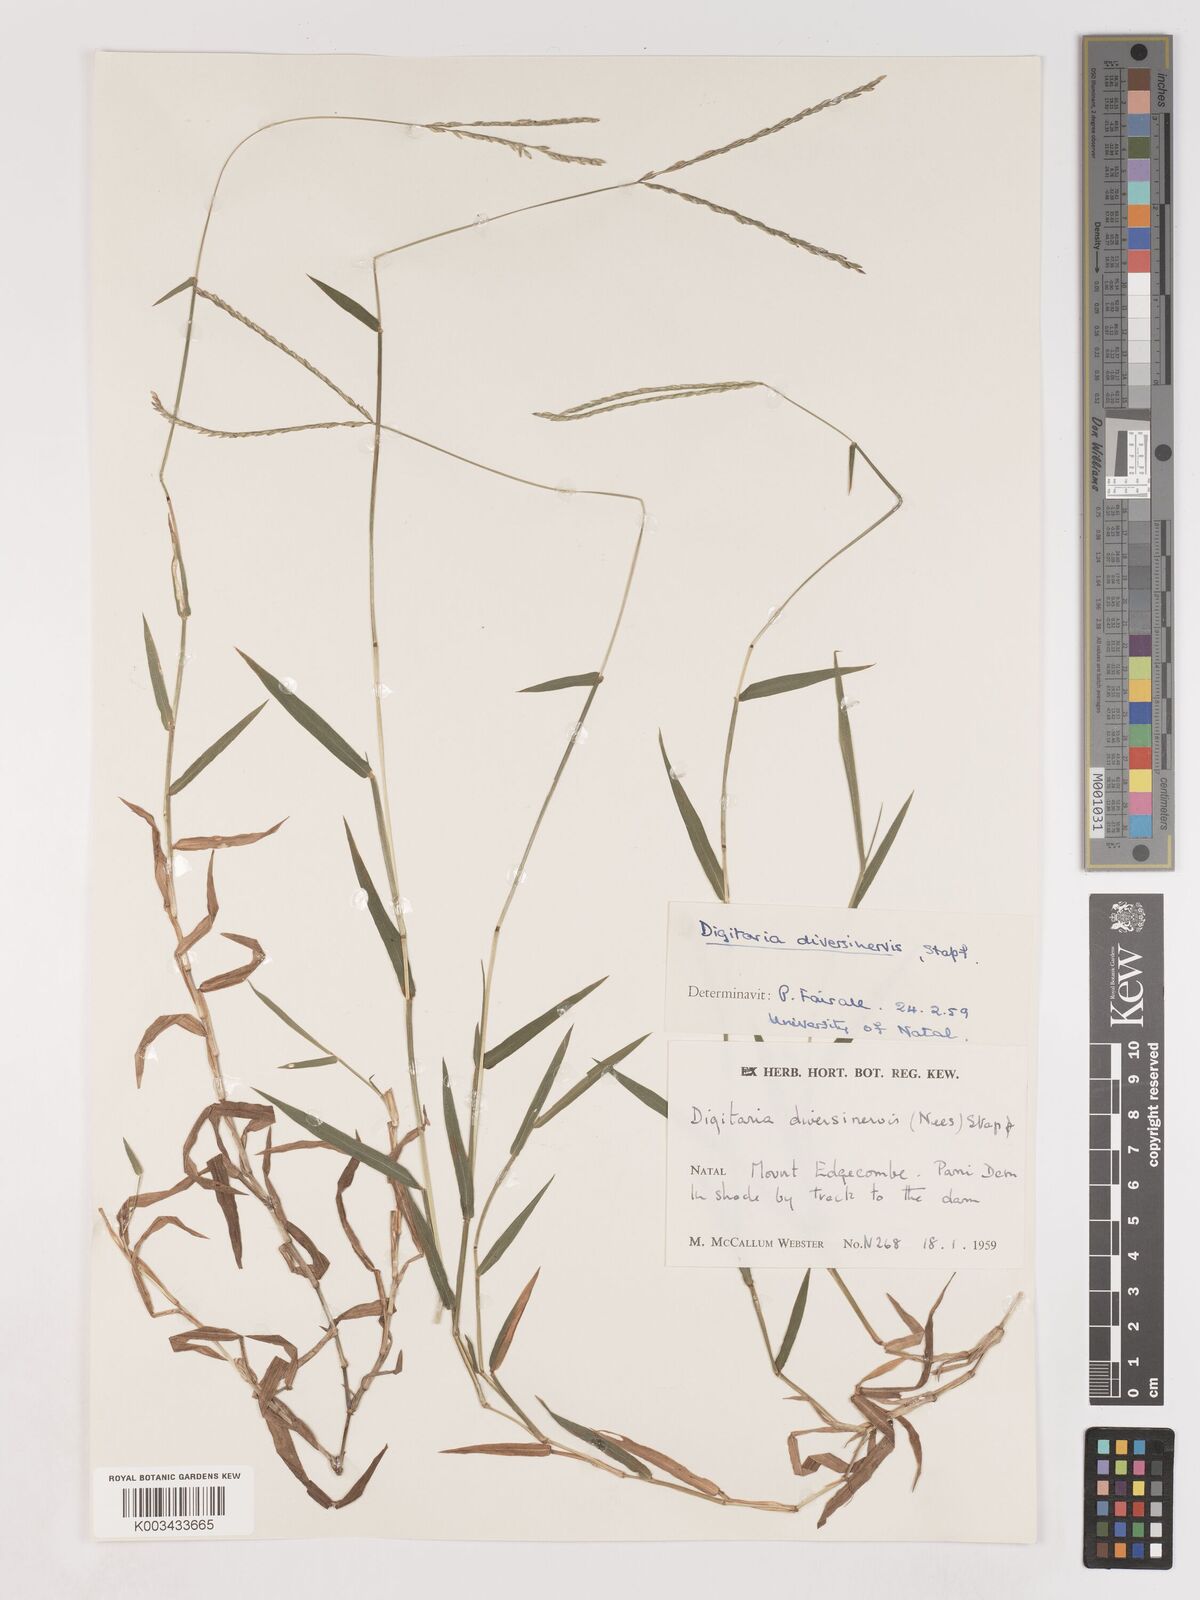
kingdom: Plantae
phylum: Tracheophyta
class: Liliopsida
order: Poales
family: Poaceae
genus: Digitaria
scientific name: Digitaria diversinervis
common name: Richmond finger grass
